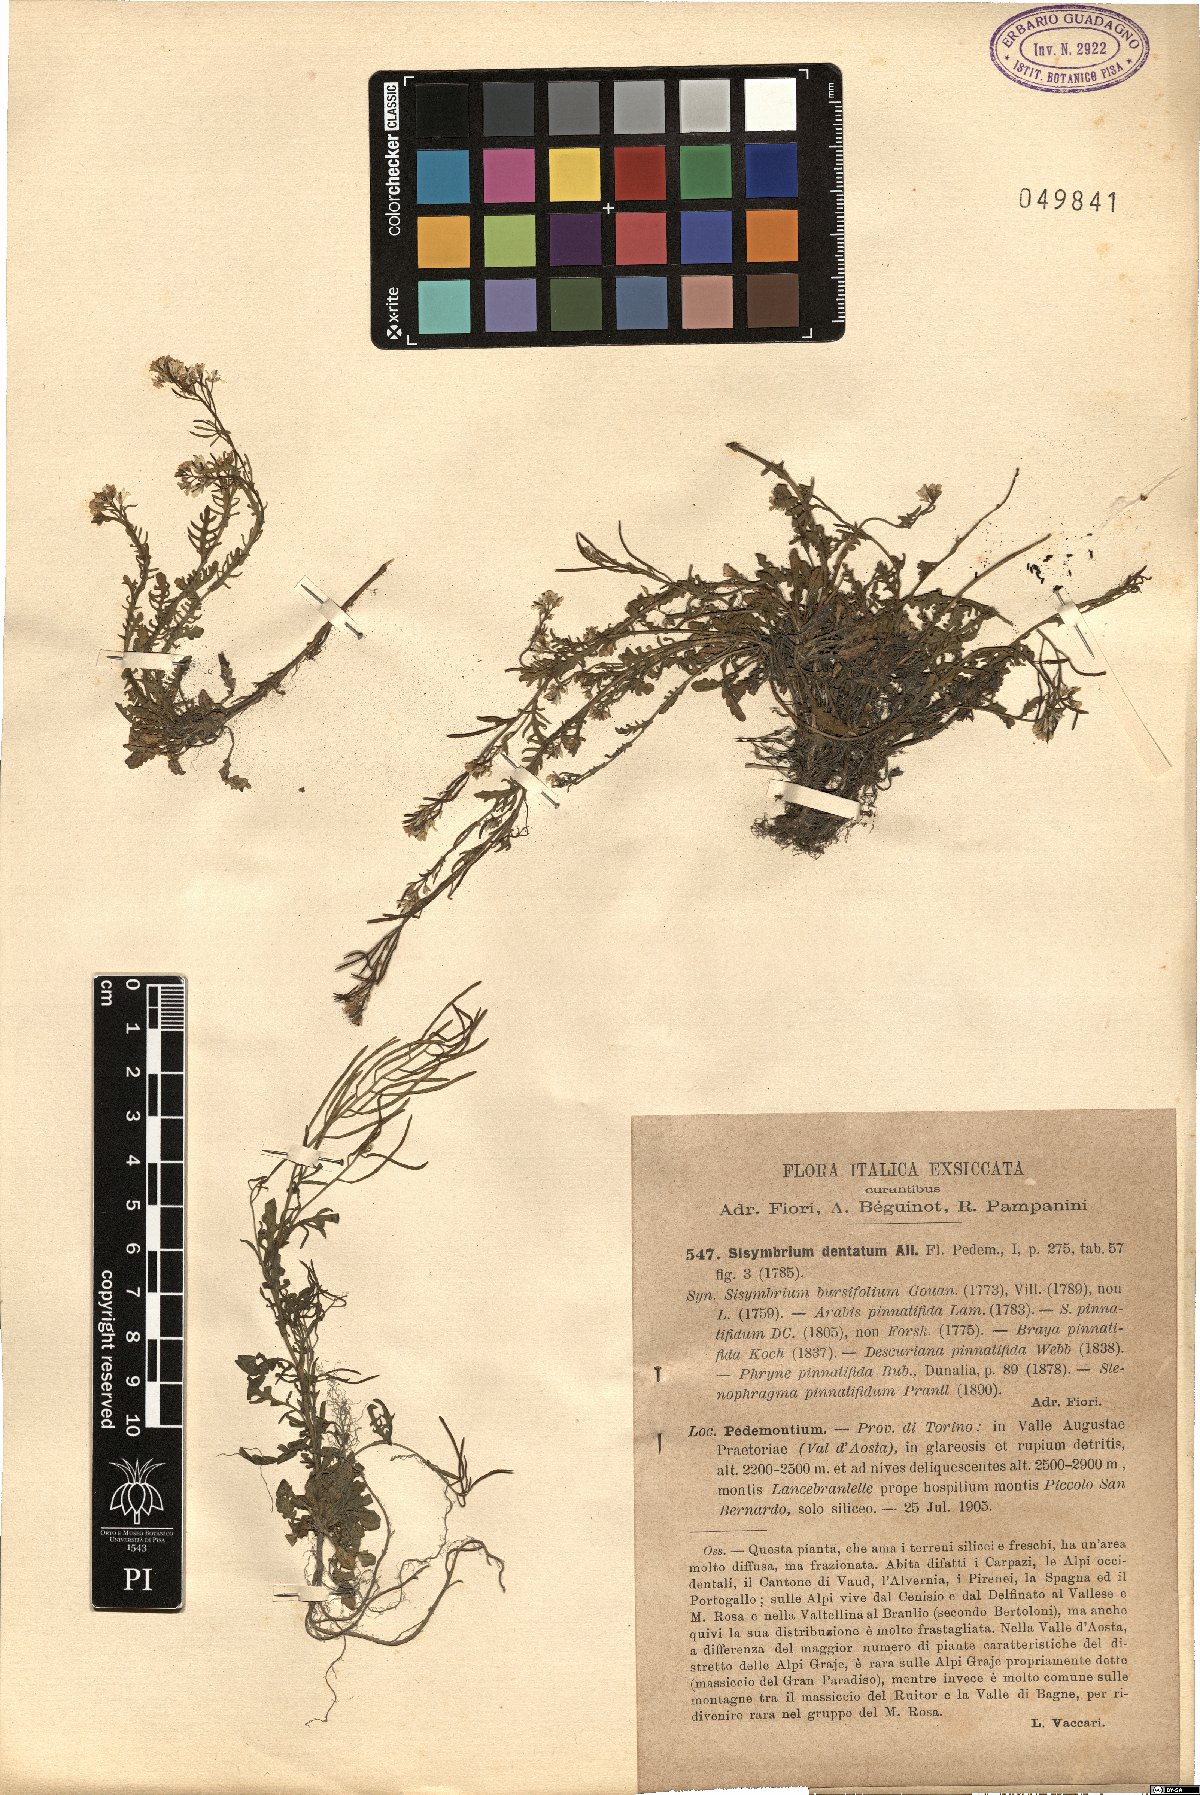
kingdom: Plantae
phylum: Tracheophyta
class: Magnoliopsida
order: Brassicales
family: Brassicaceae
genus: Murbeckiella
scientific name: Murbeckiella pinnatifida
